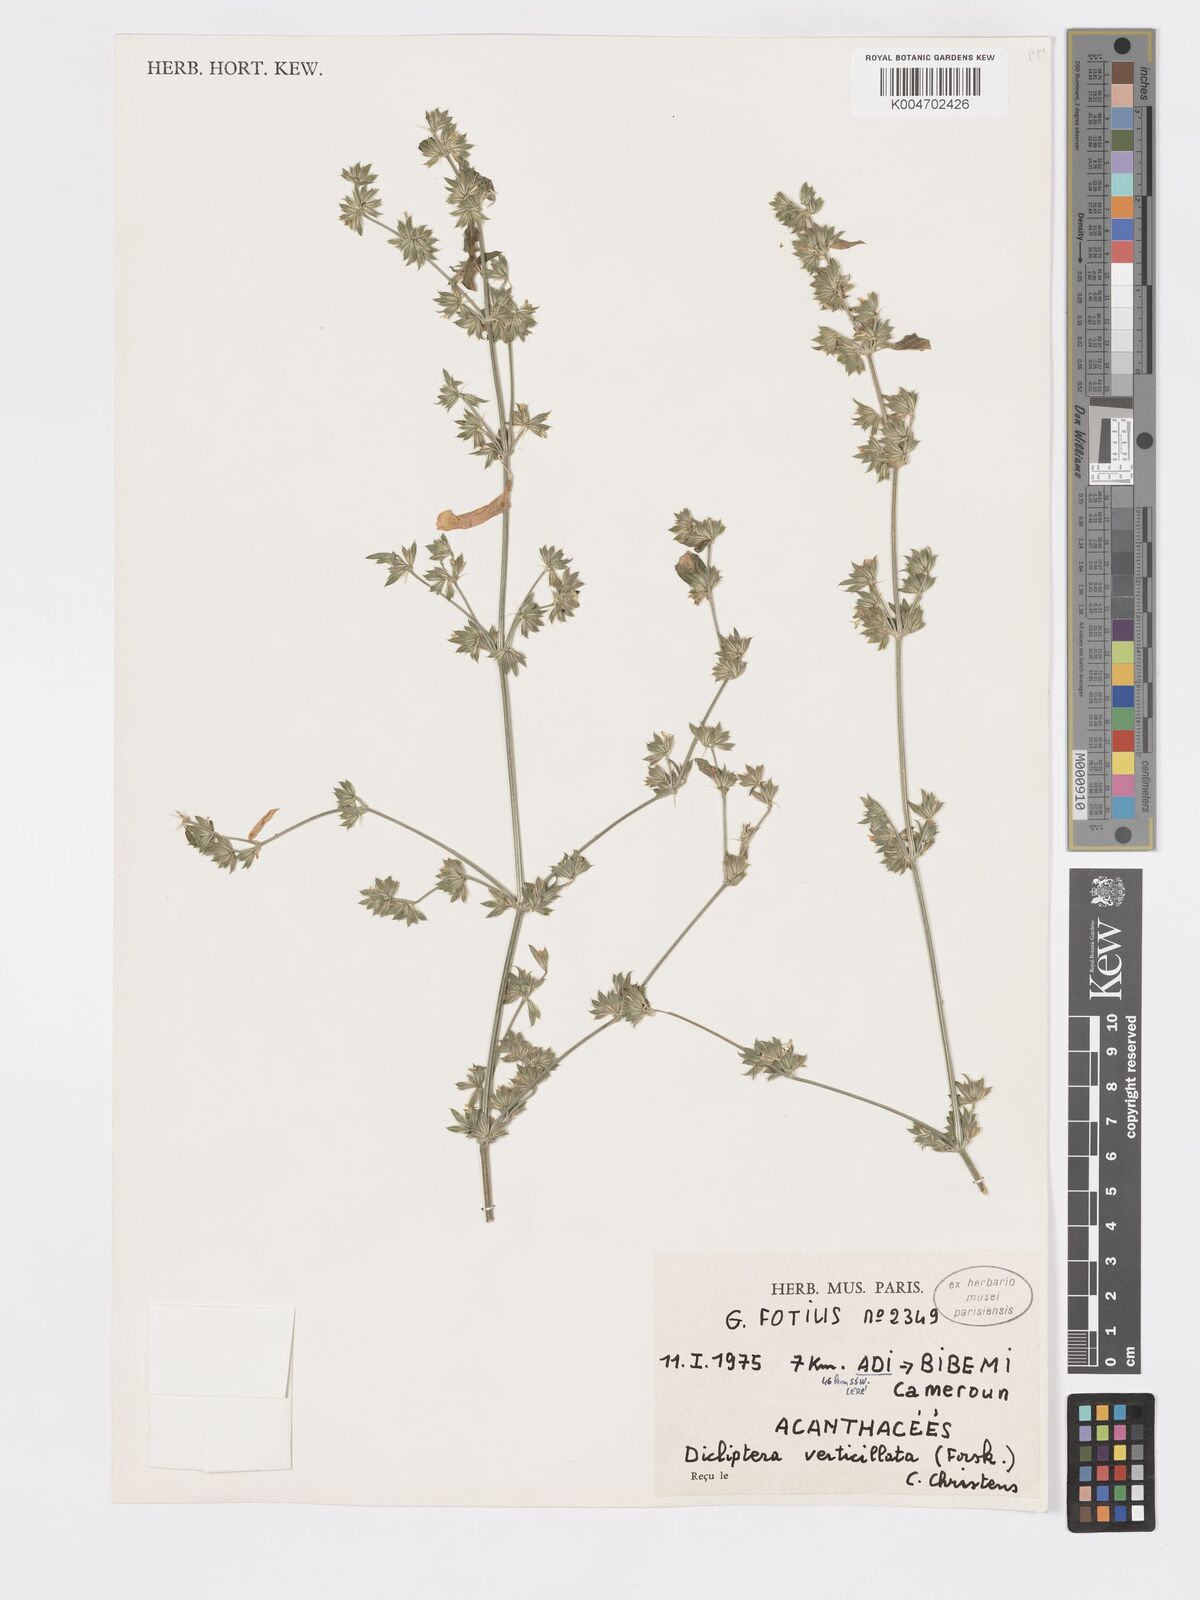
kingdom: Plantae
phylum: Tracheophyta
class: Magnoliopsida
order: Lamiales
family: Acanthaceae
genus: Dicliptera
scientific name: Dicliptera verticillata
